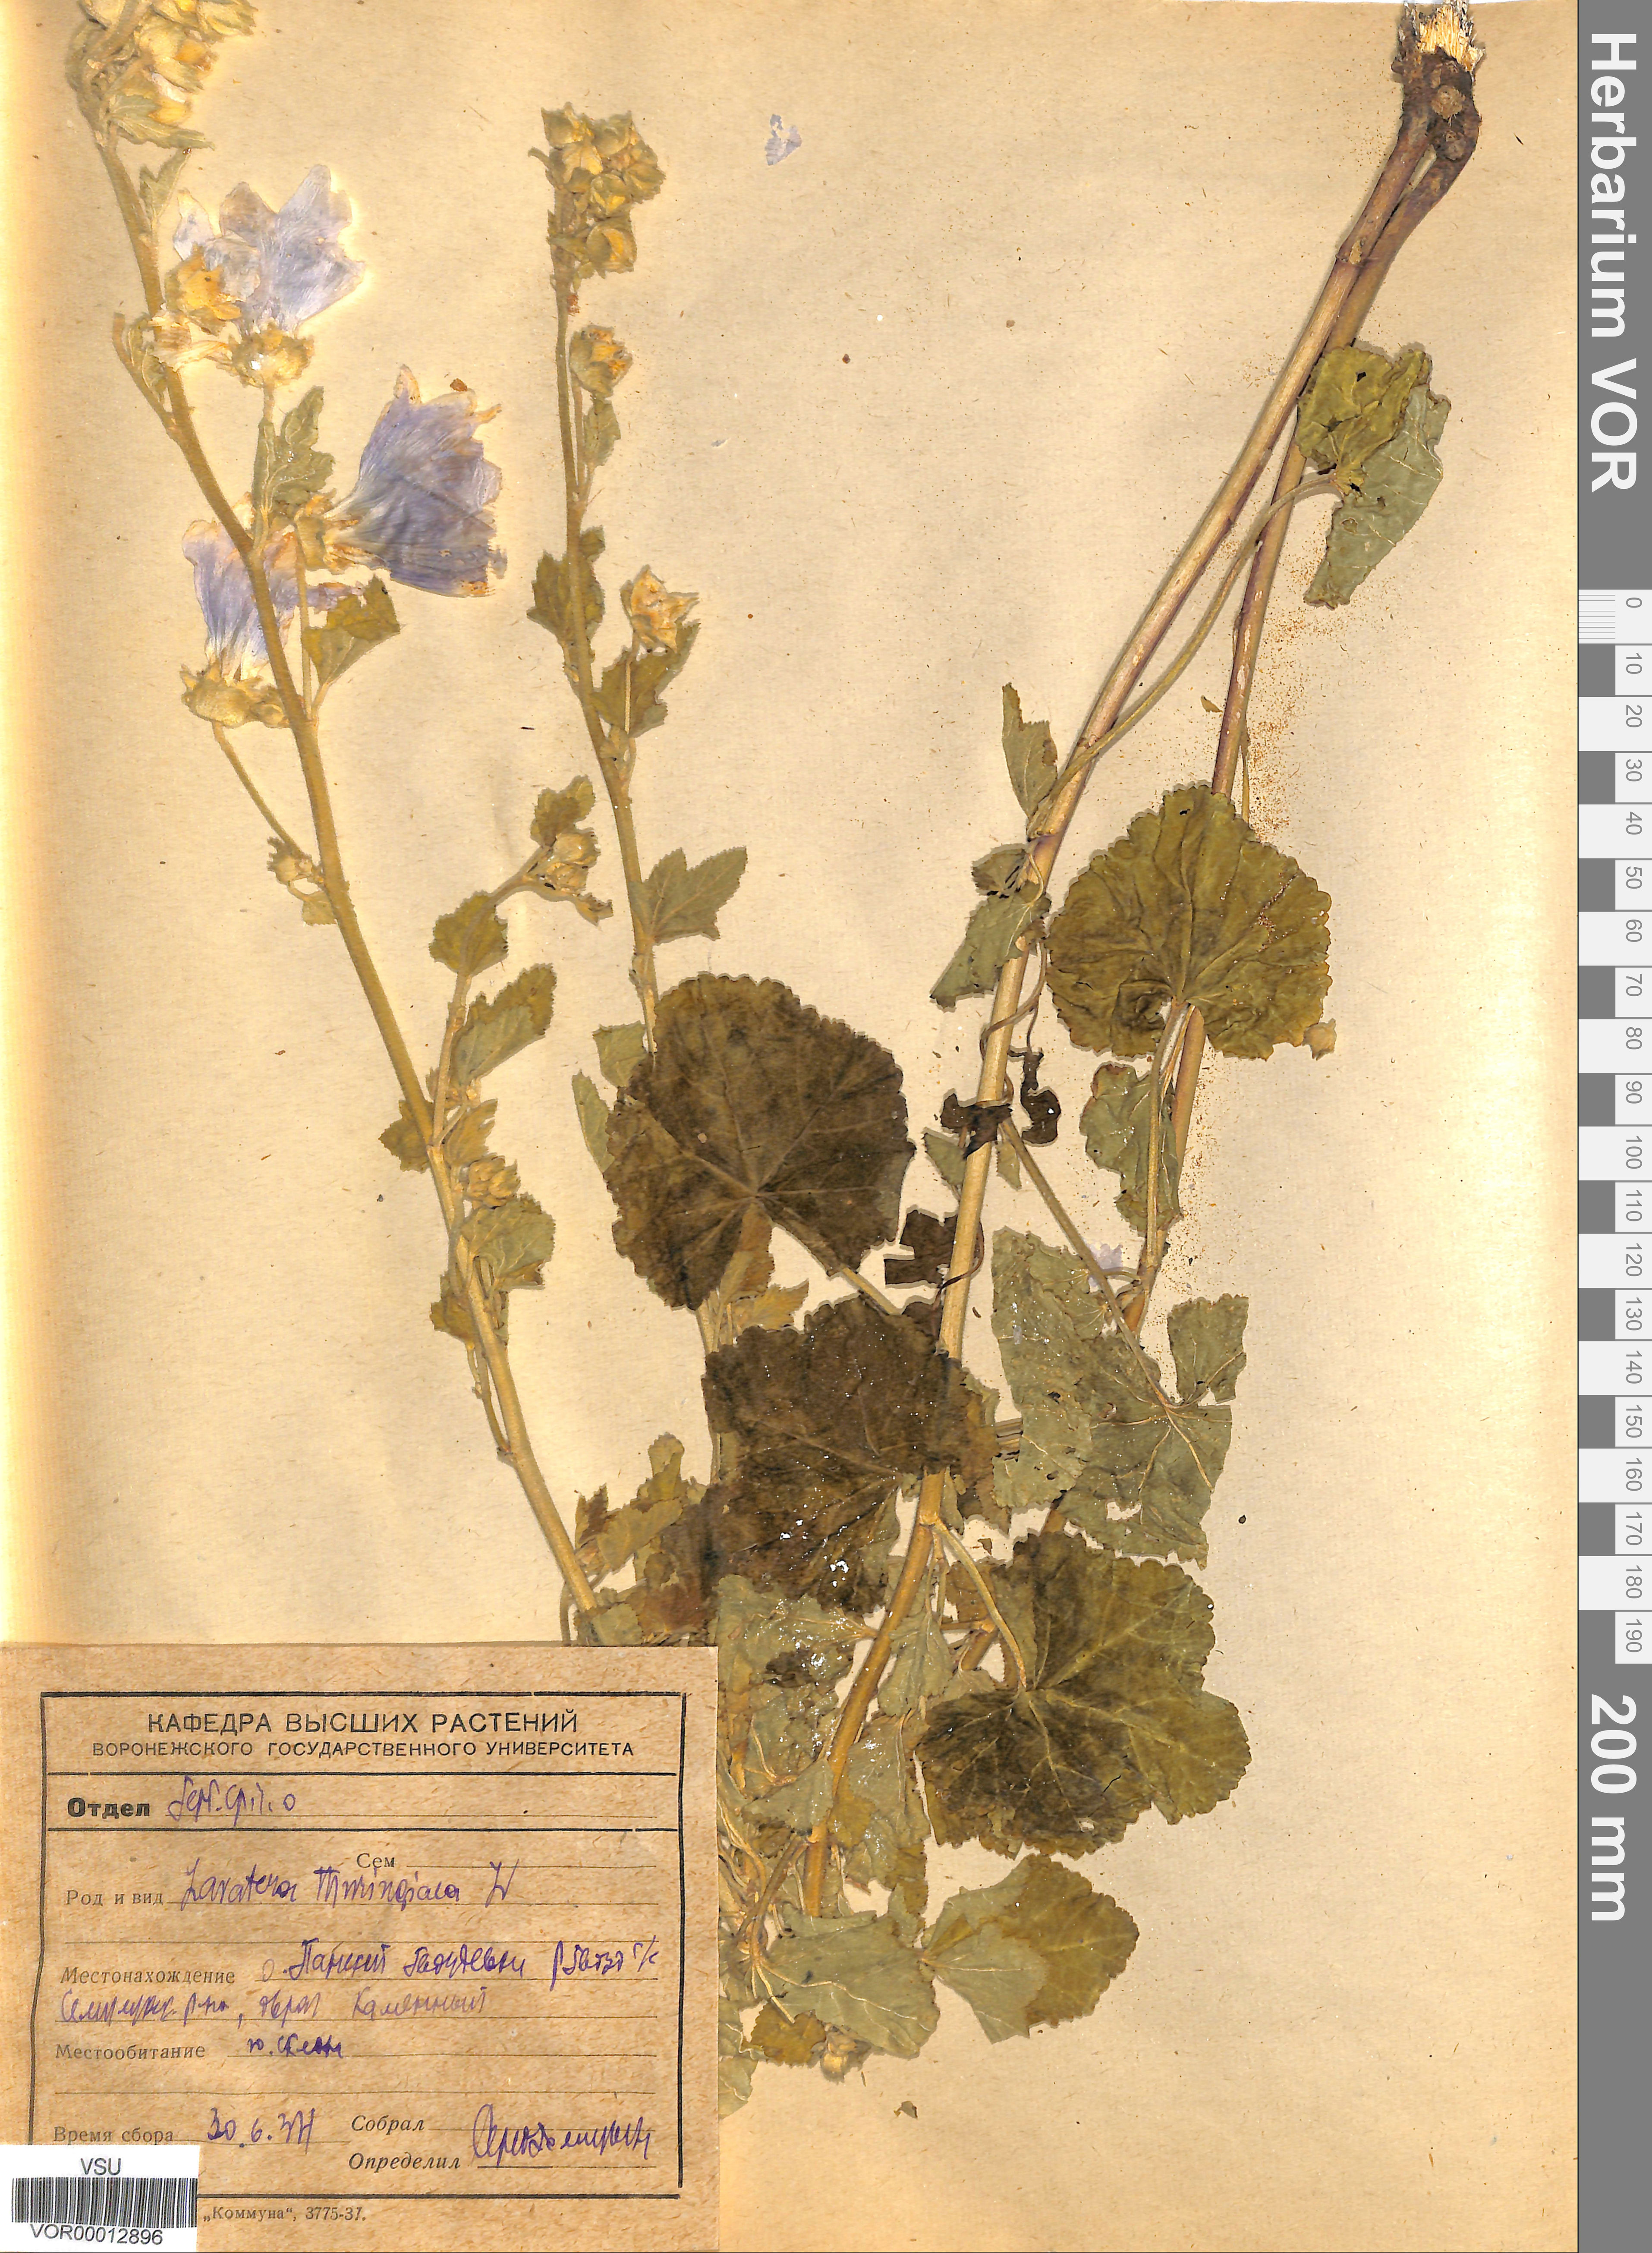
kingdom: Plantae
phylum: Tracheophyta
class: Magnoliopsida
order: Malvales
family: Malvaceae
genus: Malva
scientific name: Malva thuringiaca
